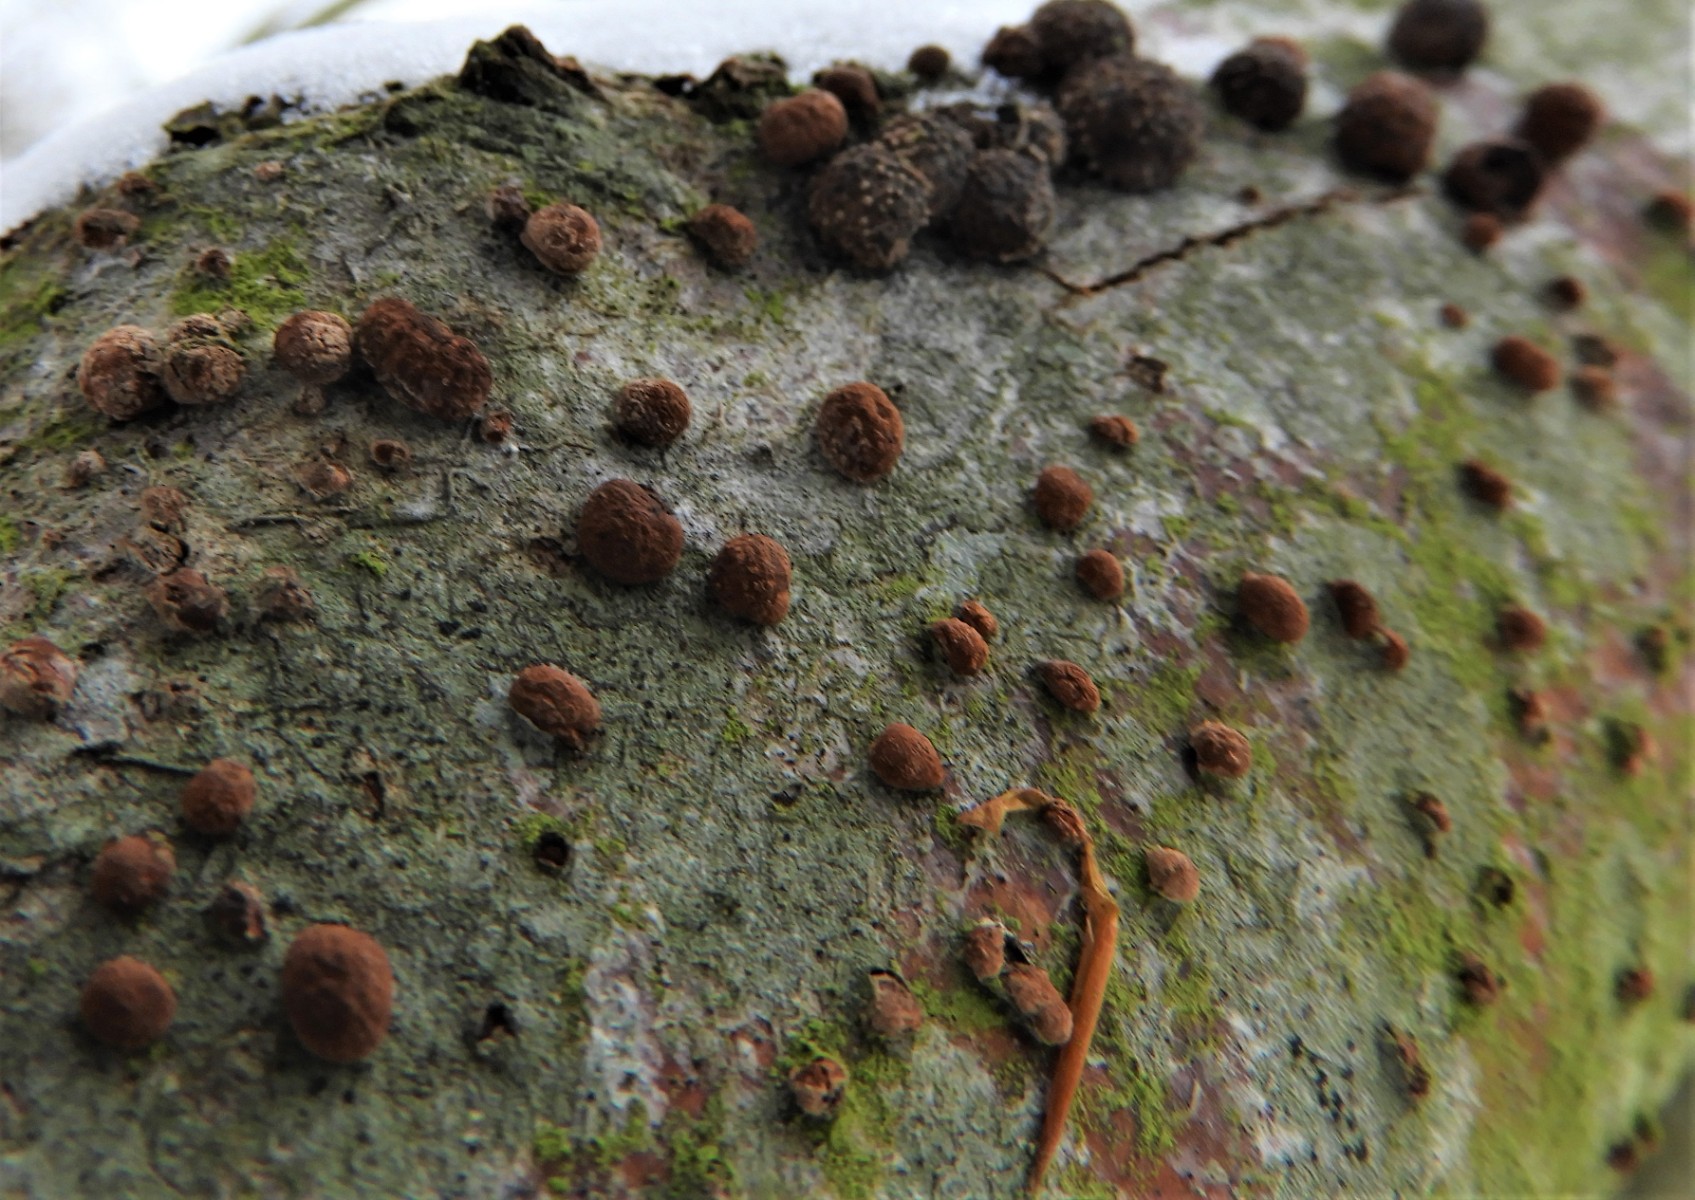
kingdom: Fungi
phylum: Ascomycota
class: Sordariomycetes
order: Xylariales
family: Hypoxylaceae
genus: Hypoxylon
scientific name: Hypoxylon fragiforme
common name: kuljordbær
